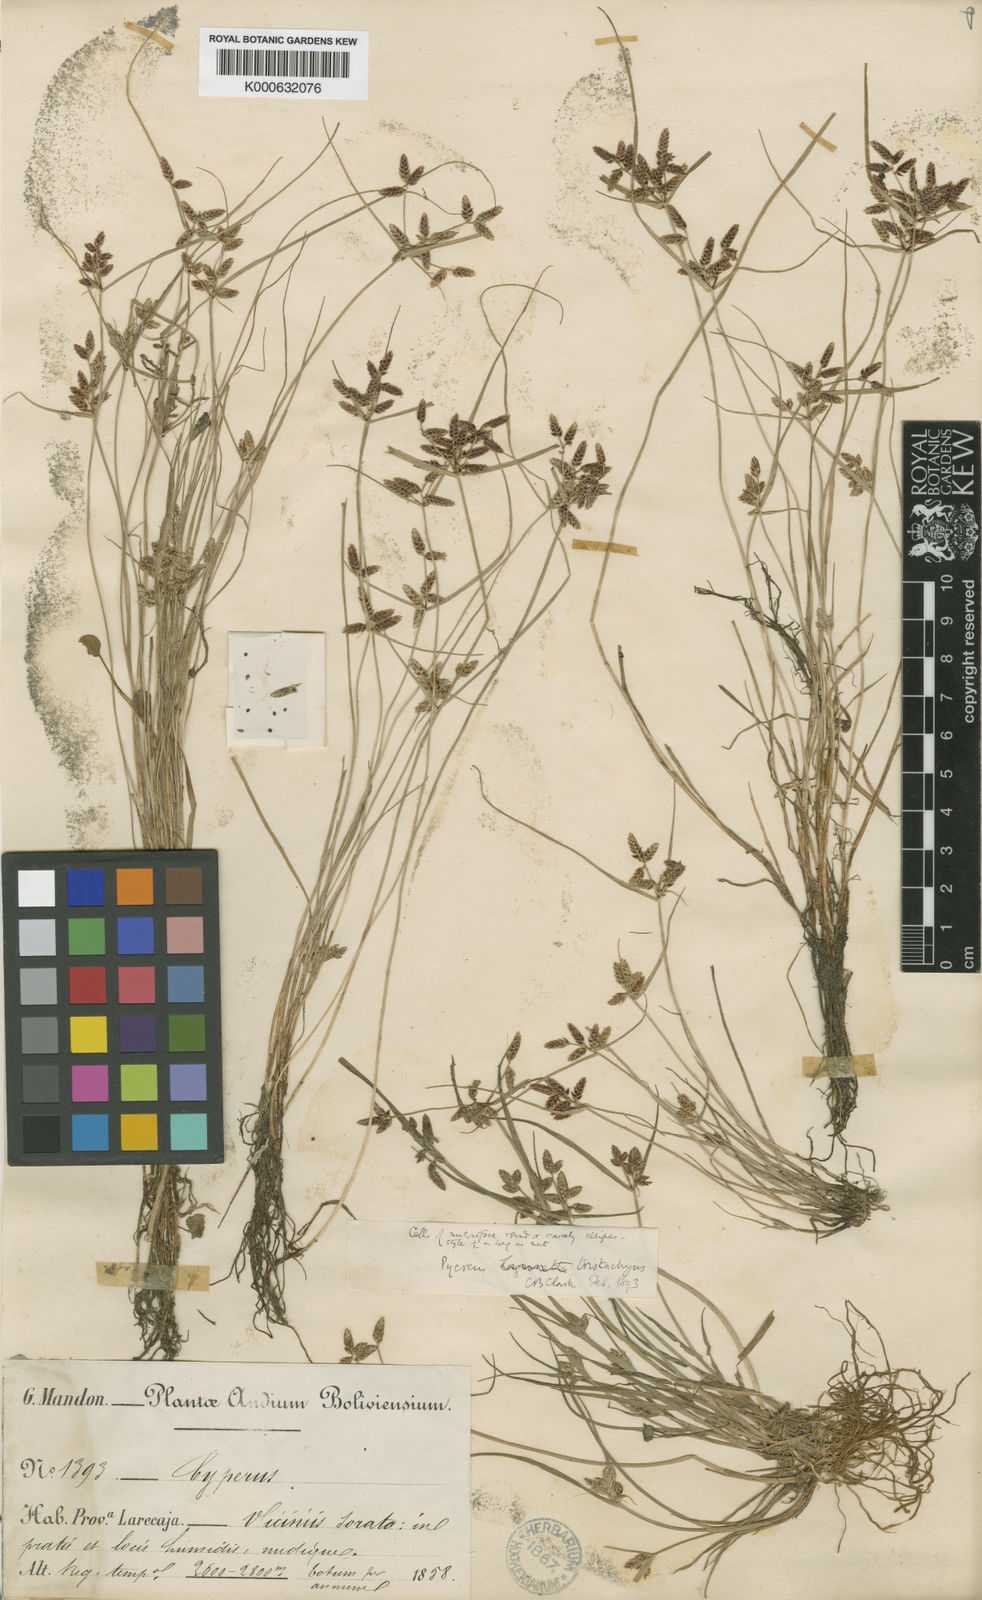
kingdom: Plantae
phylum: Tracheophyta
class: Liliopsida
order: Poales
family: Cyperaceae
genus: Cyperus
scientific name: Cyperus flavescens
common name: Yellow galingale
